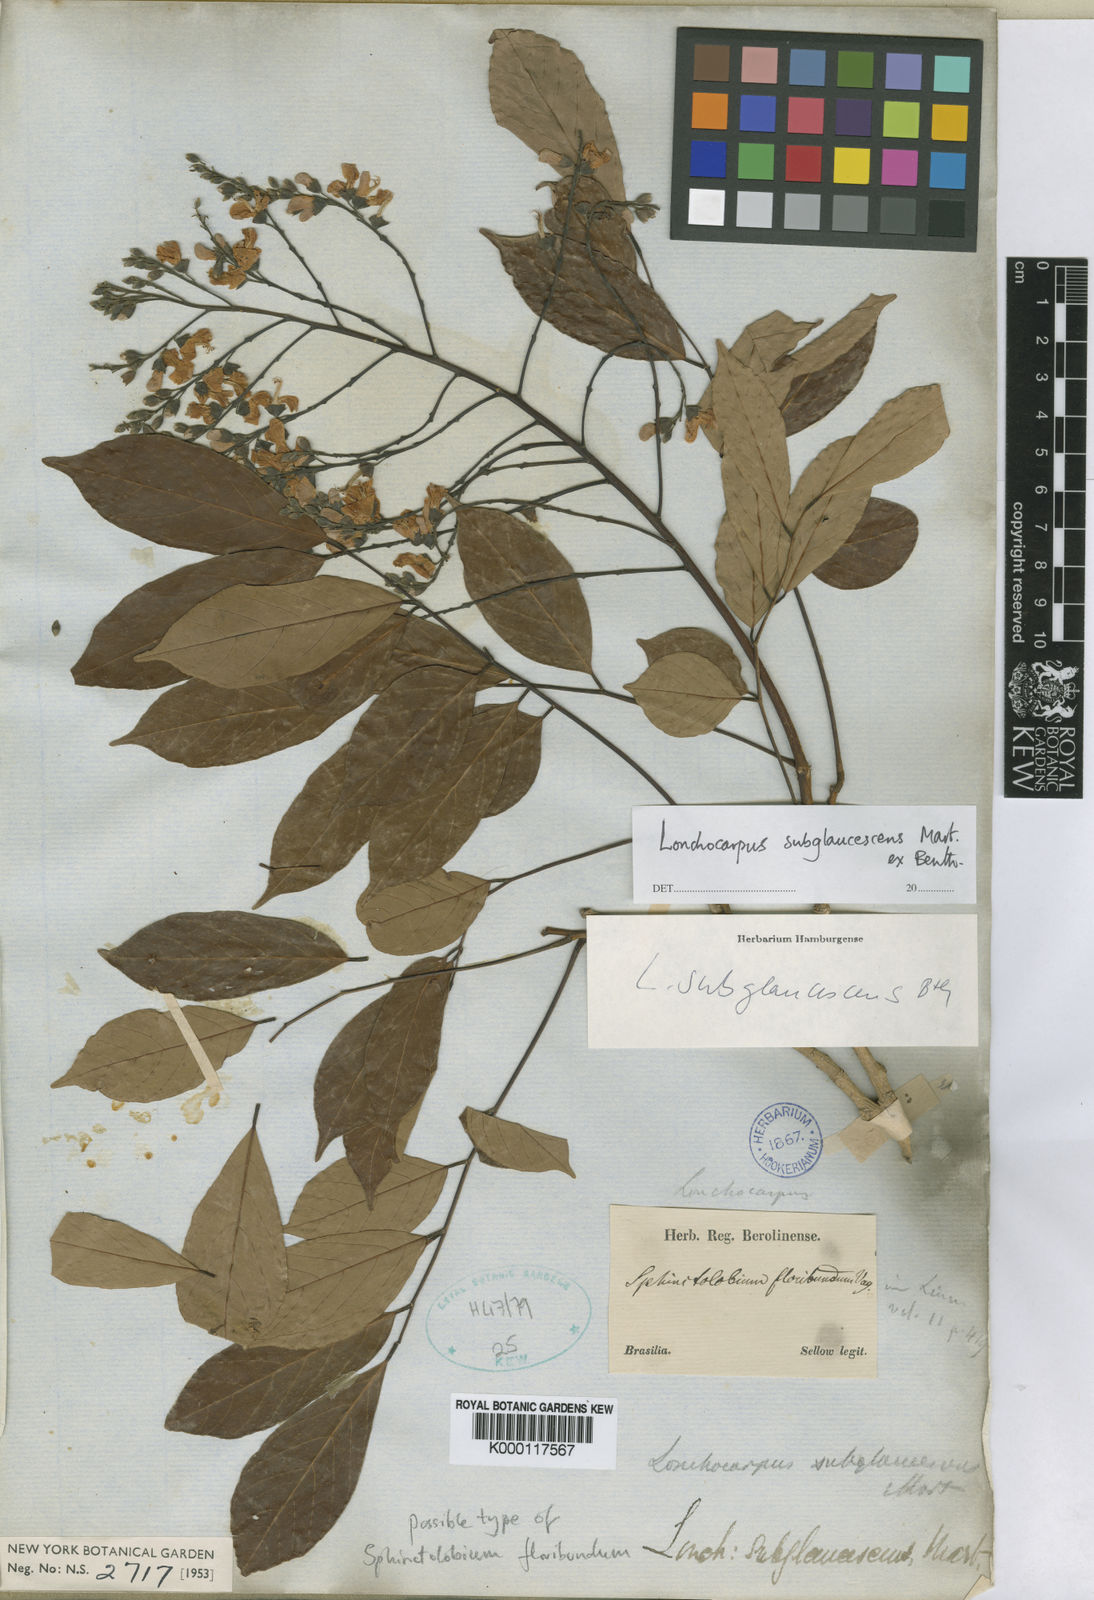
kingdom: Plantae
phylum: Tracheophyta
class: Magnoliopsida
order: Fabales
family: Fabaceae
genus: Lonchocarpus
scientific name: Lonchocarpus
